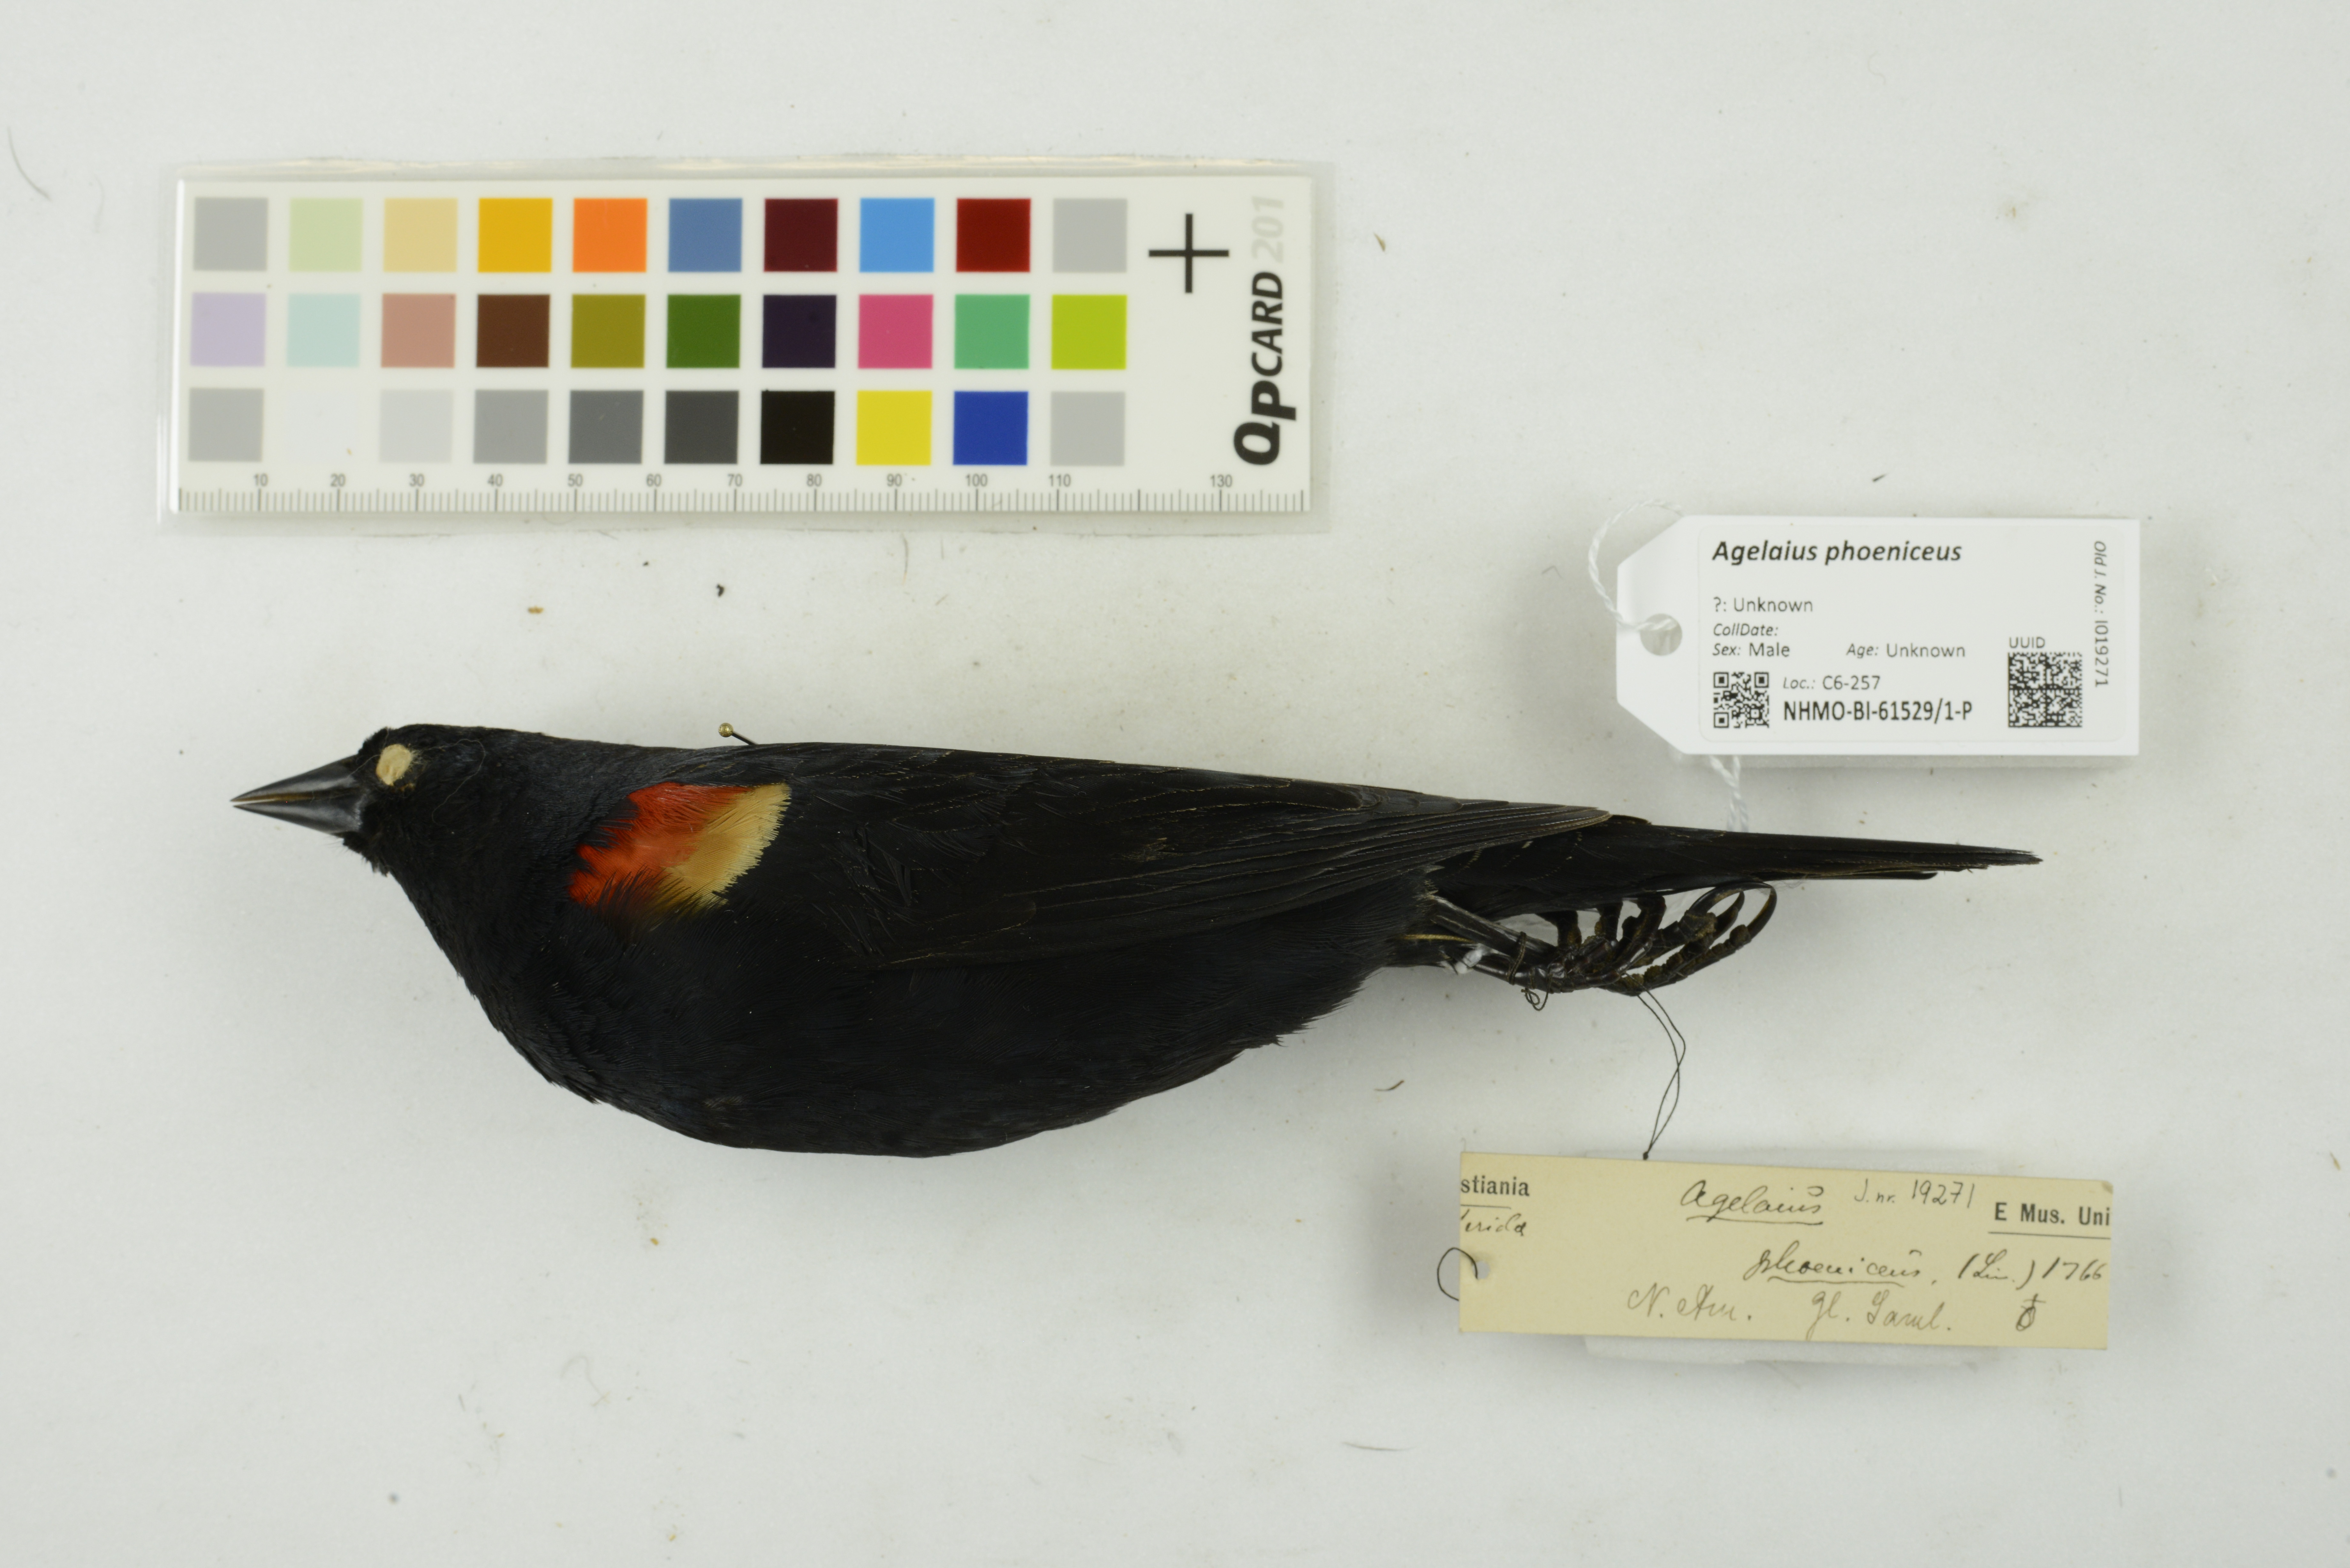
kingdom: Animalia
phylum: Chordata
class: Aves
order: Passeriformes
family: Icteridae
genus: Agelaius
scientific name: Agelaius phoeniceus
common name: Red-winged blackbird
